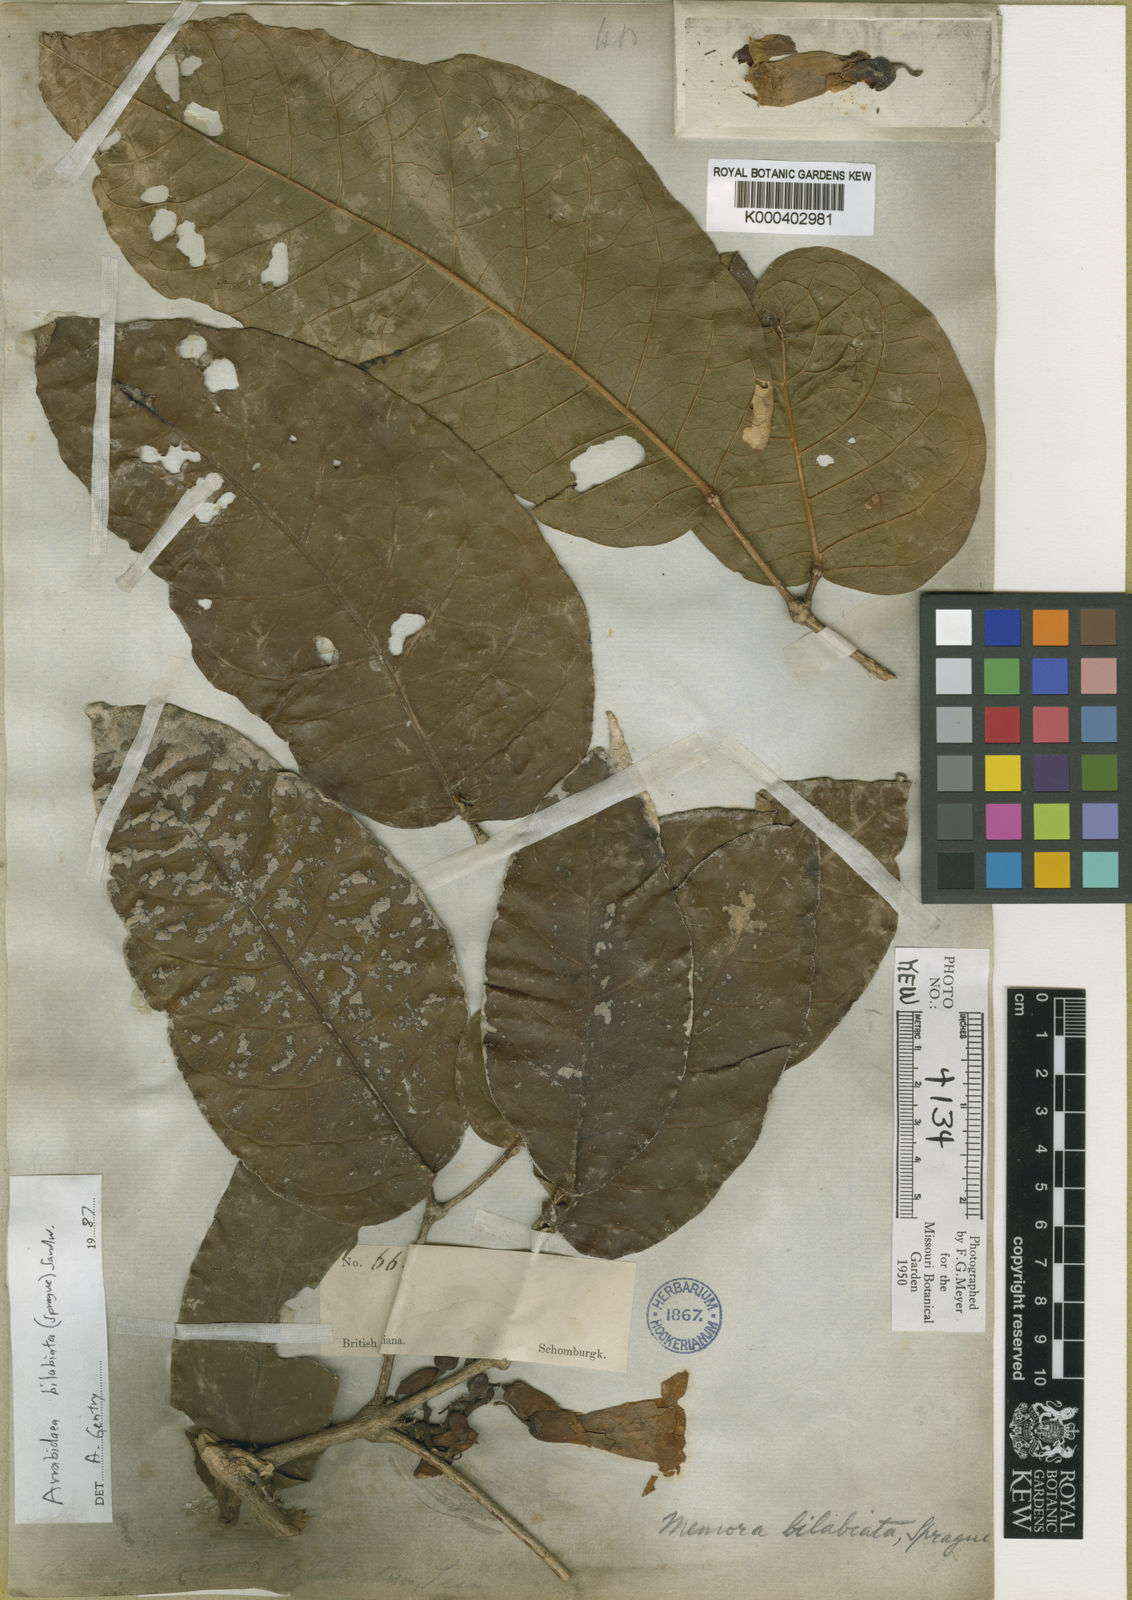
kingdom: Plantae
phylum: Tracheophyta
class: Magnoliopsida
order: Lamiales
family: Bignoniaceae
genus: Tanaecium
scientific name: Tanaecium bilabiatum
